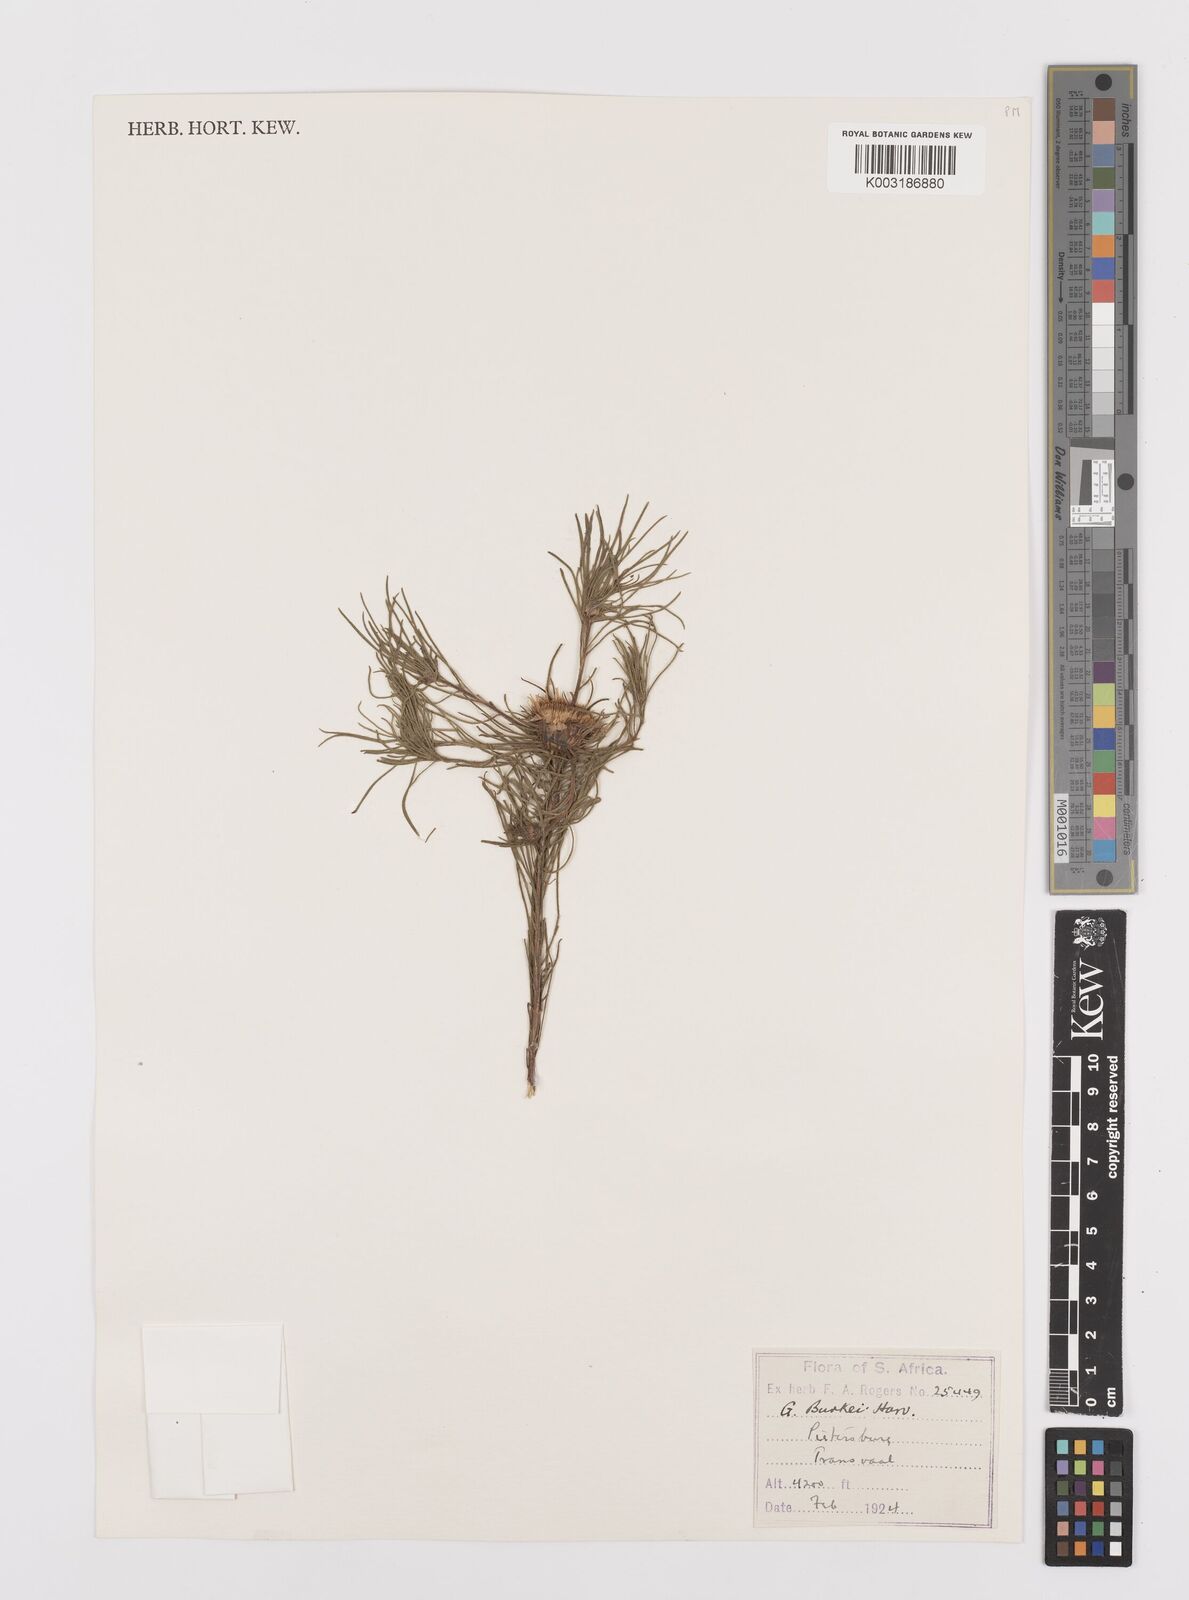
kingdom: Plantae
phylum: Tracheophyta
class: Magnoliopsida
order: Asterales
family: Asteraceae
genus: Geigeria
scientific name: Geigeria burkei
